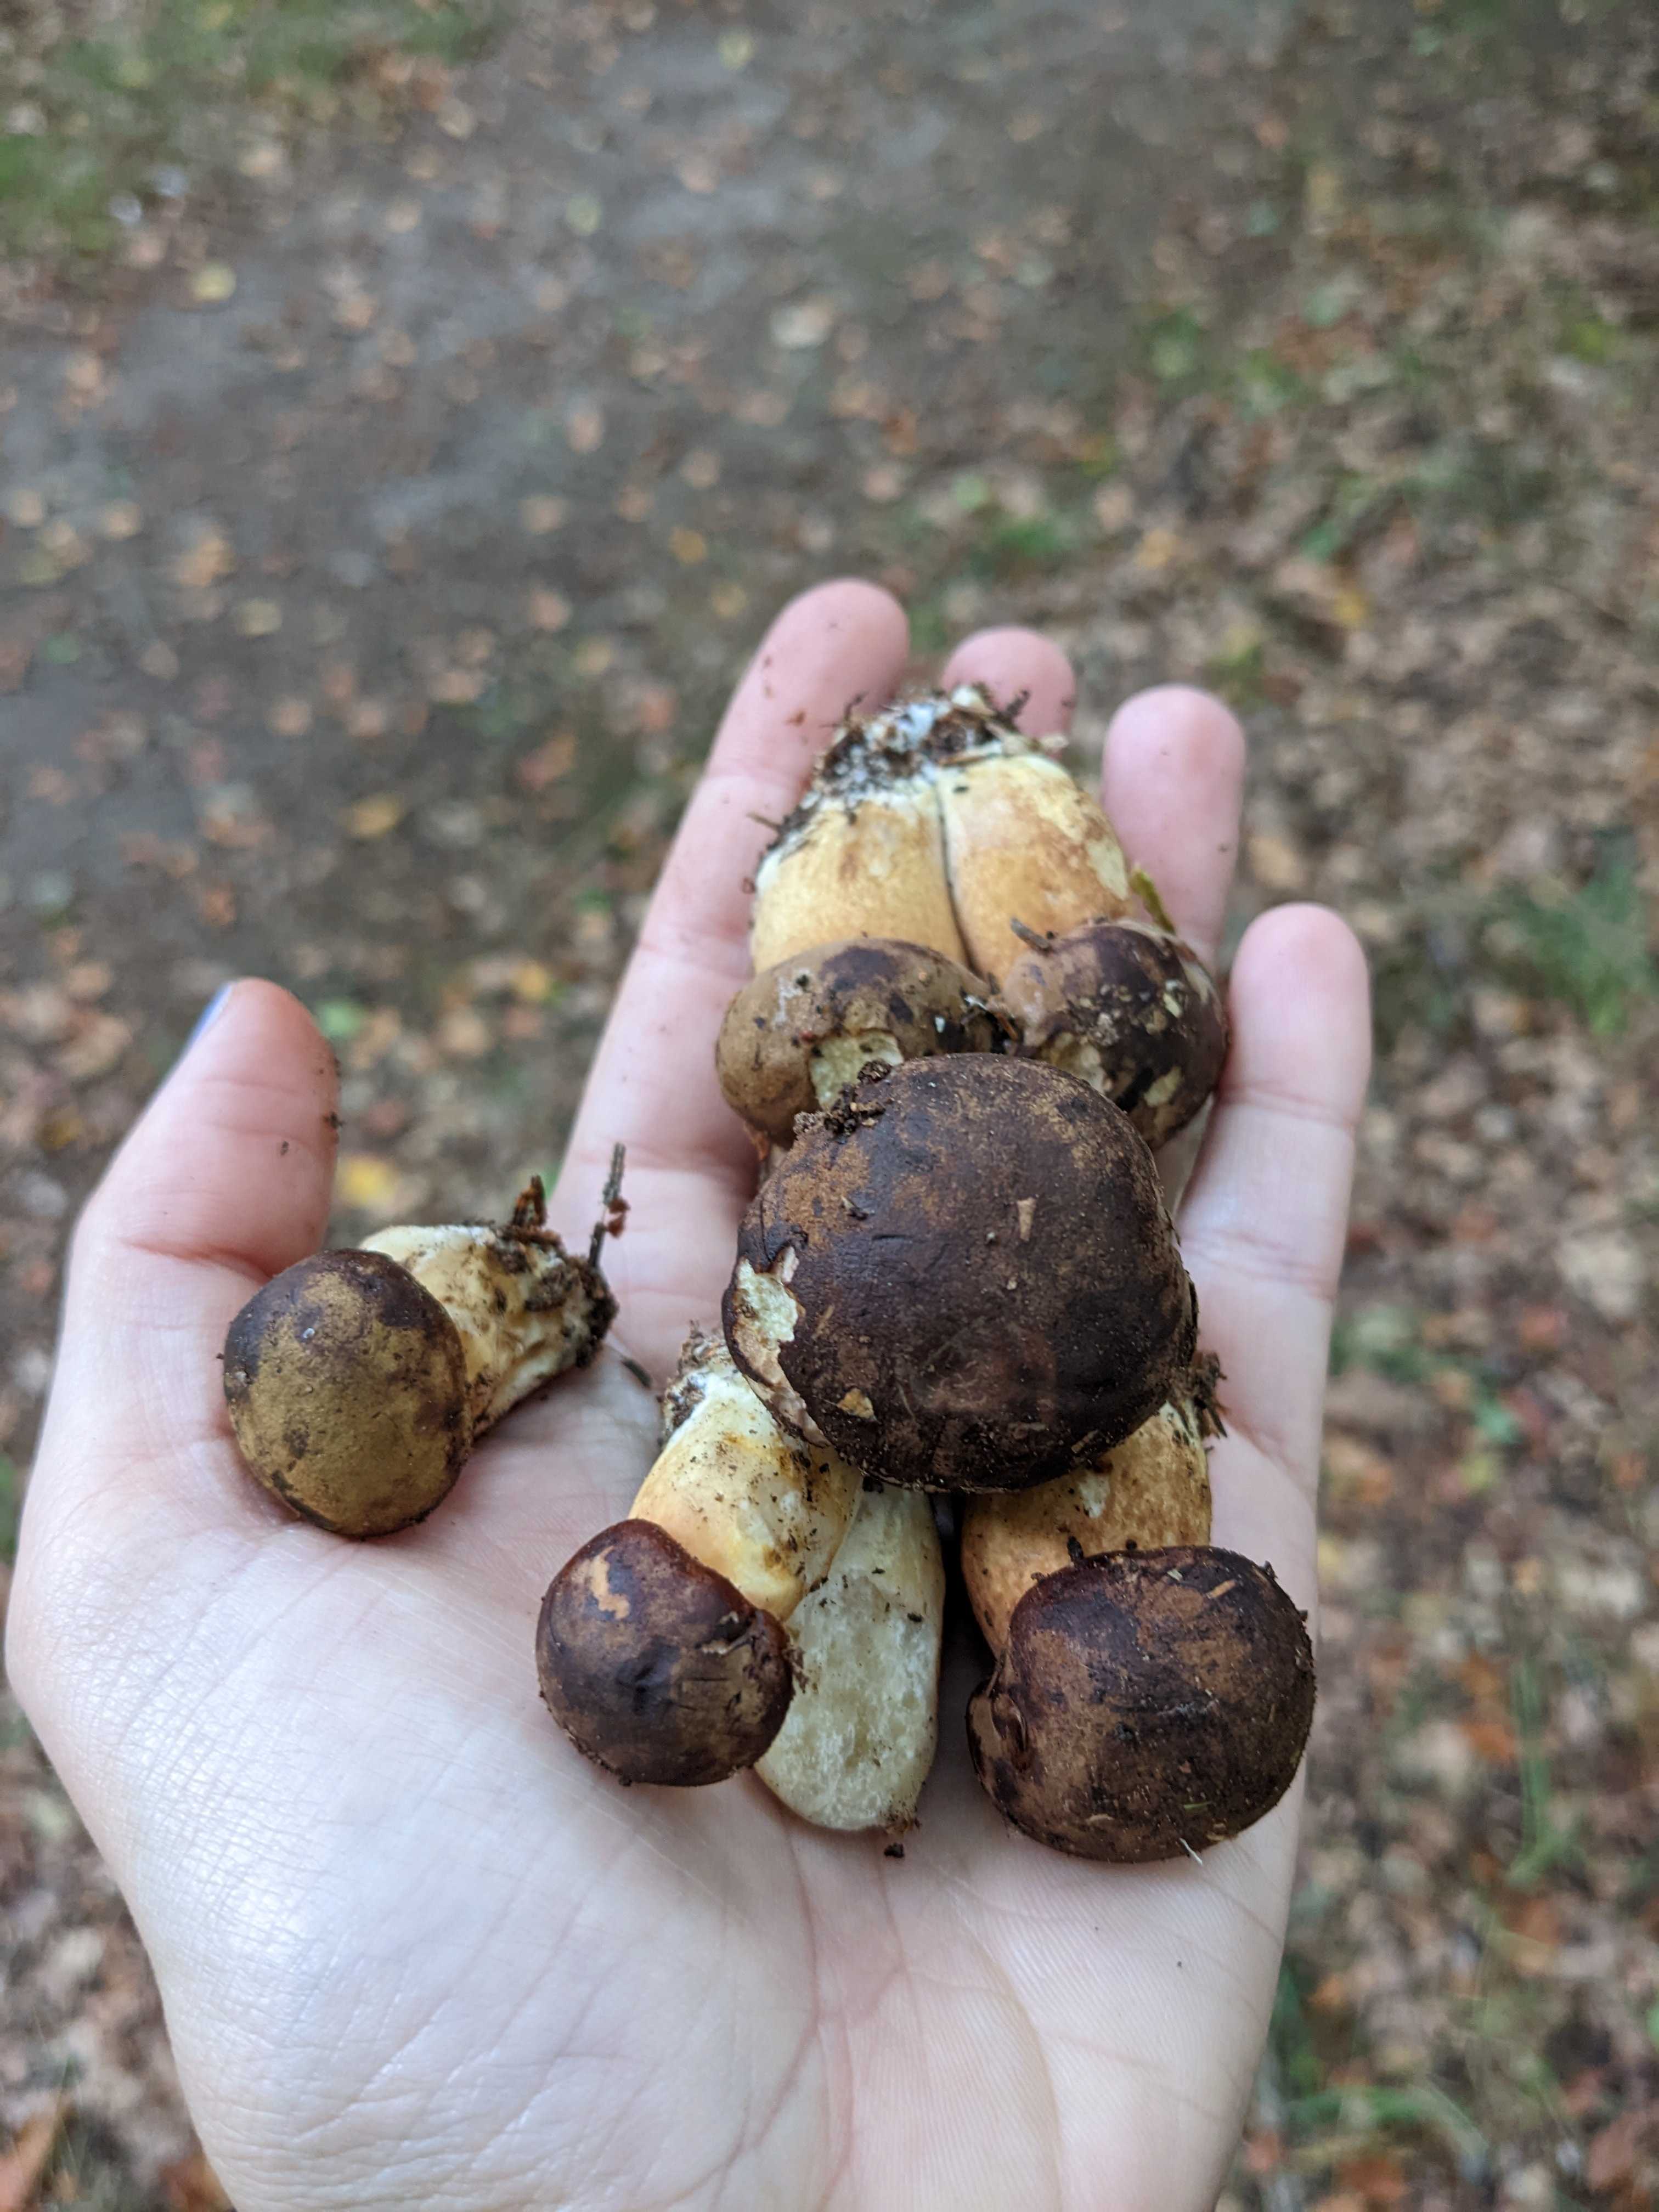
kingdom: Fungi
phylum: Basidiomycota
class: Agaricomycetes
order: Boletales
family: Boletaceae
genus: Imleria
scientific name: Imleria badia
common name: brunstokket rørhat
